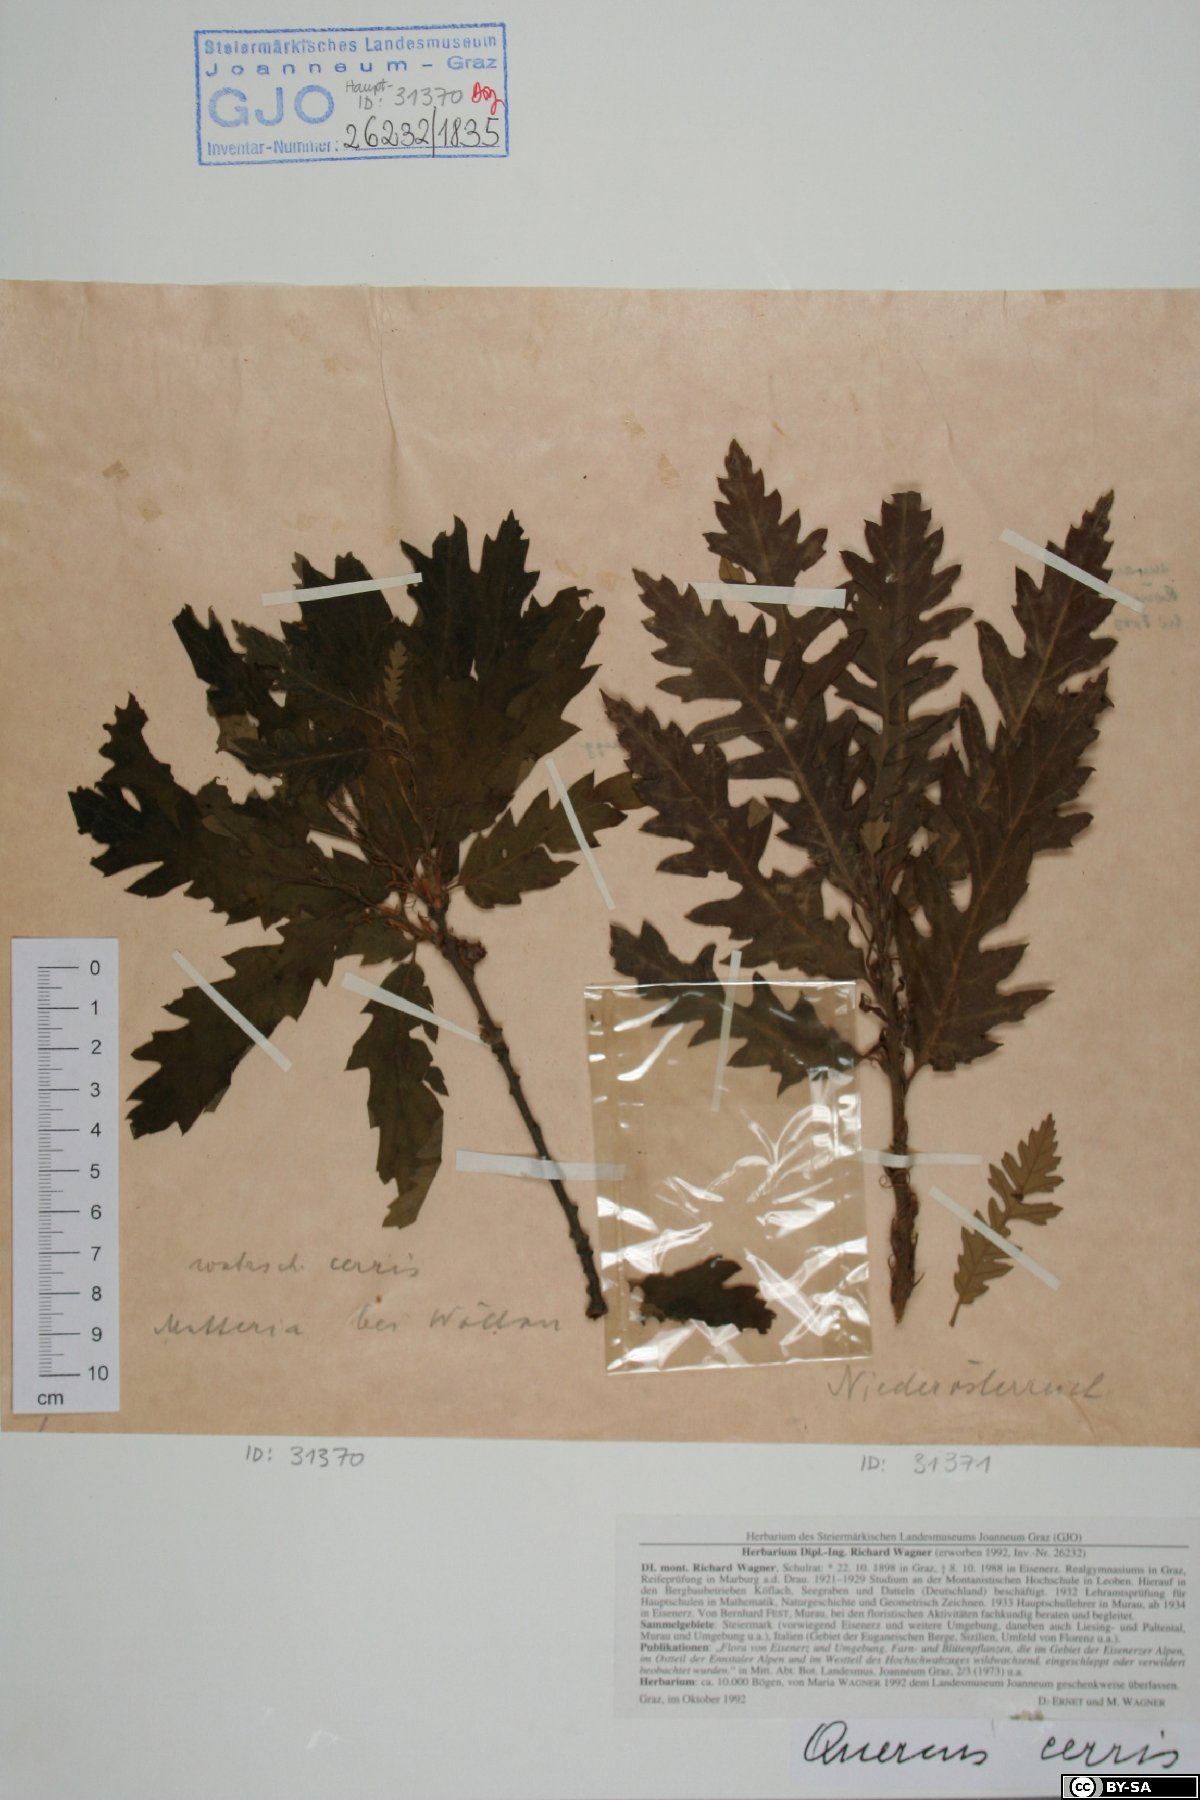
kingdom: Plantae
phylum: Tracheophyta
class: Magnoliopsida
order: Fagales
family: Fagaceae
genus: Quercus
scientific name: Quercus cerris
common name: Turkey oak
